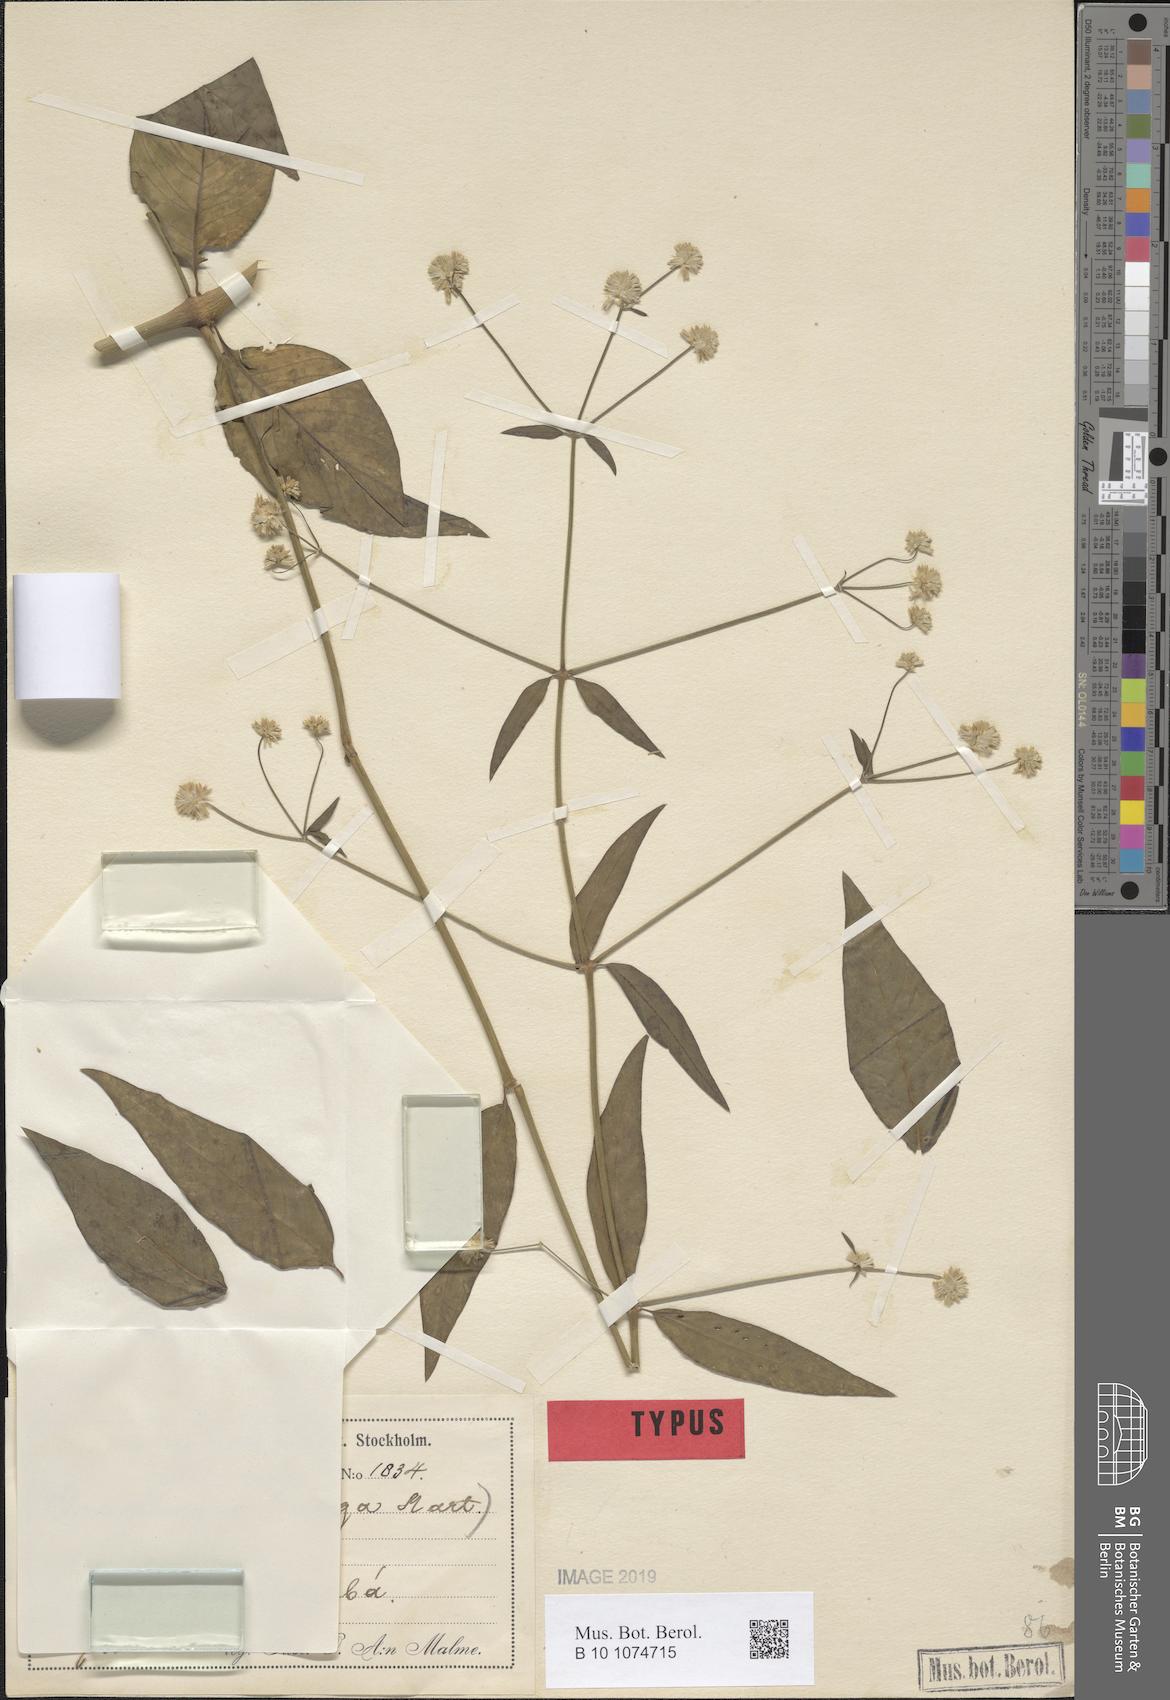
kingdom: Plantae
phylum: Tracheophyta
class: Magnoliopsida
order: Caryophyllales
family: Amaranthaceae
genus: Gomphrena
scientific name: Gomphrena vaga
